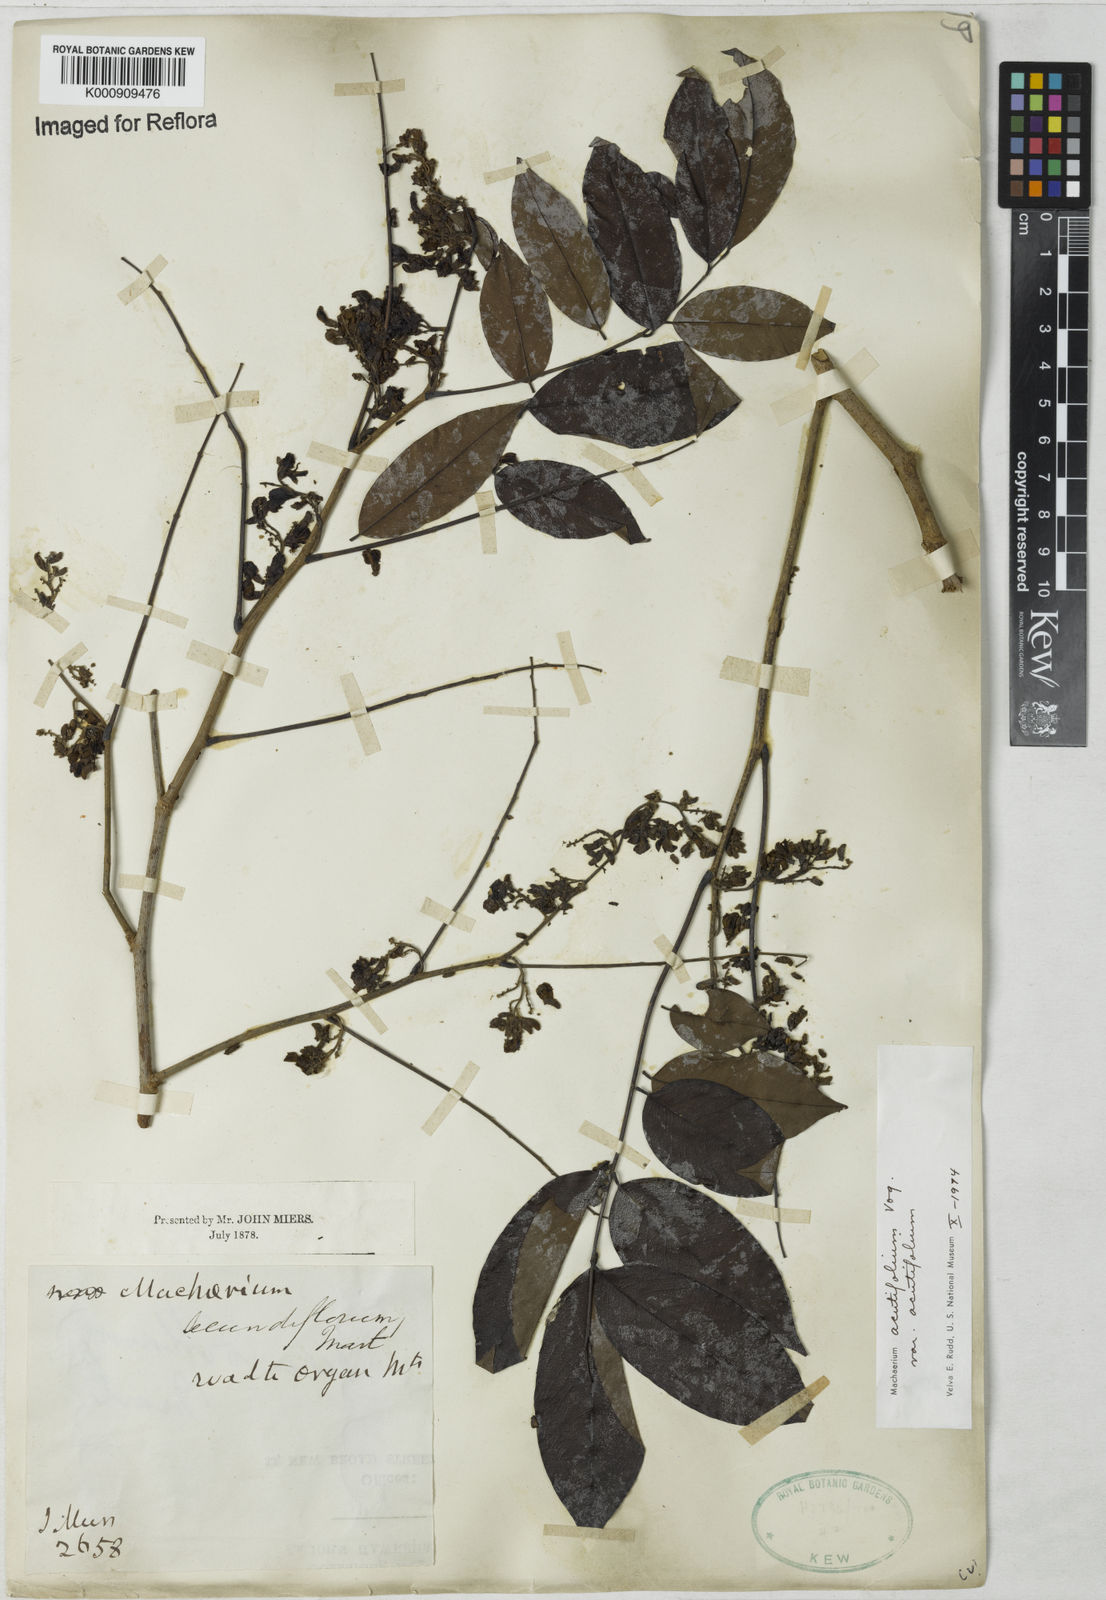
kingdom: Plantae
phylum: Tracheophyta
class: Magnoliopsida
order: Fabales
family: Fabaceae
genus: Machaerium
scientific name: Machaerium acutifolium
